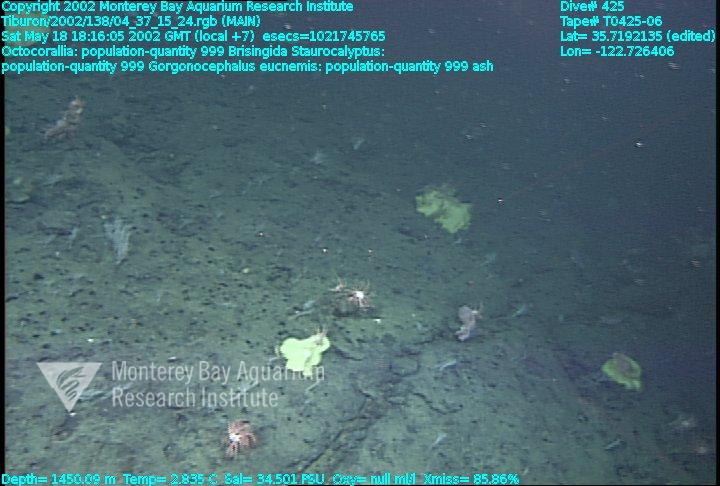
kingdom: Animalia
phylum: Porifera
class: Hexactinellida
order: Lyssacinosida
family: Rossellidae
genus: Staurocalyptus
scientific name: Staurocalyptus
